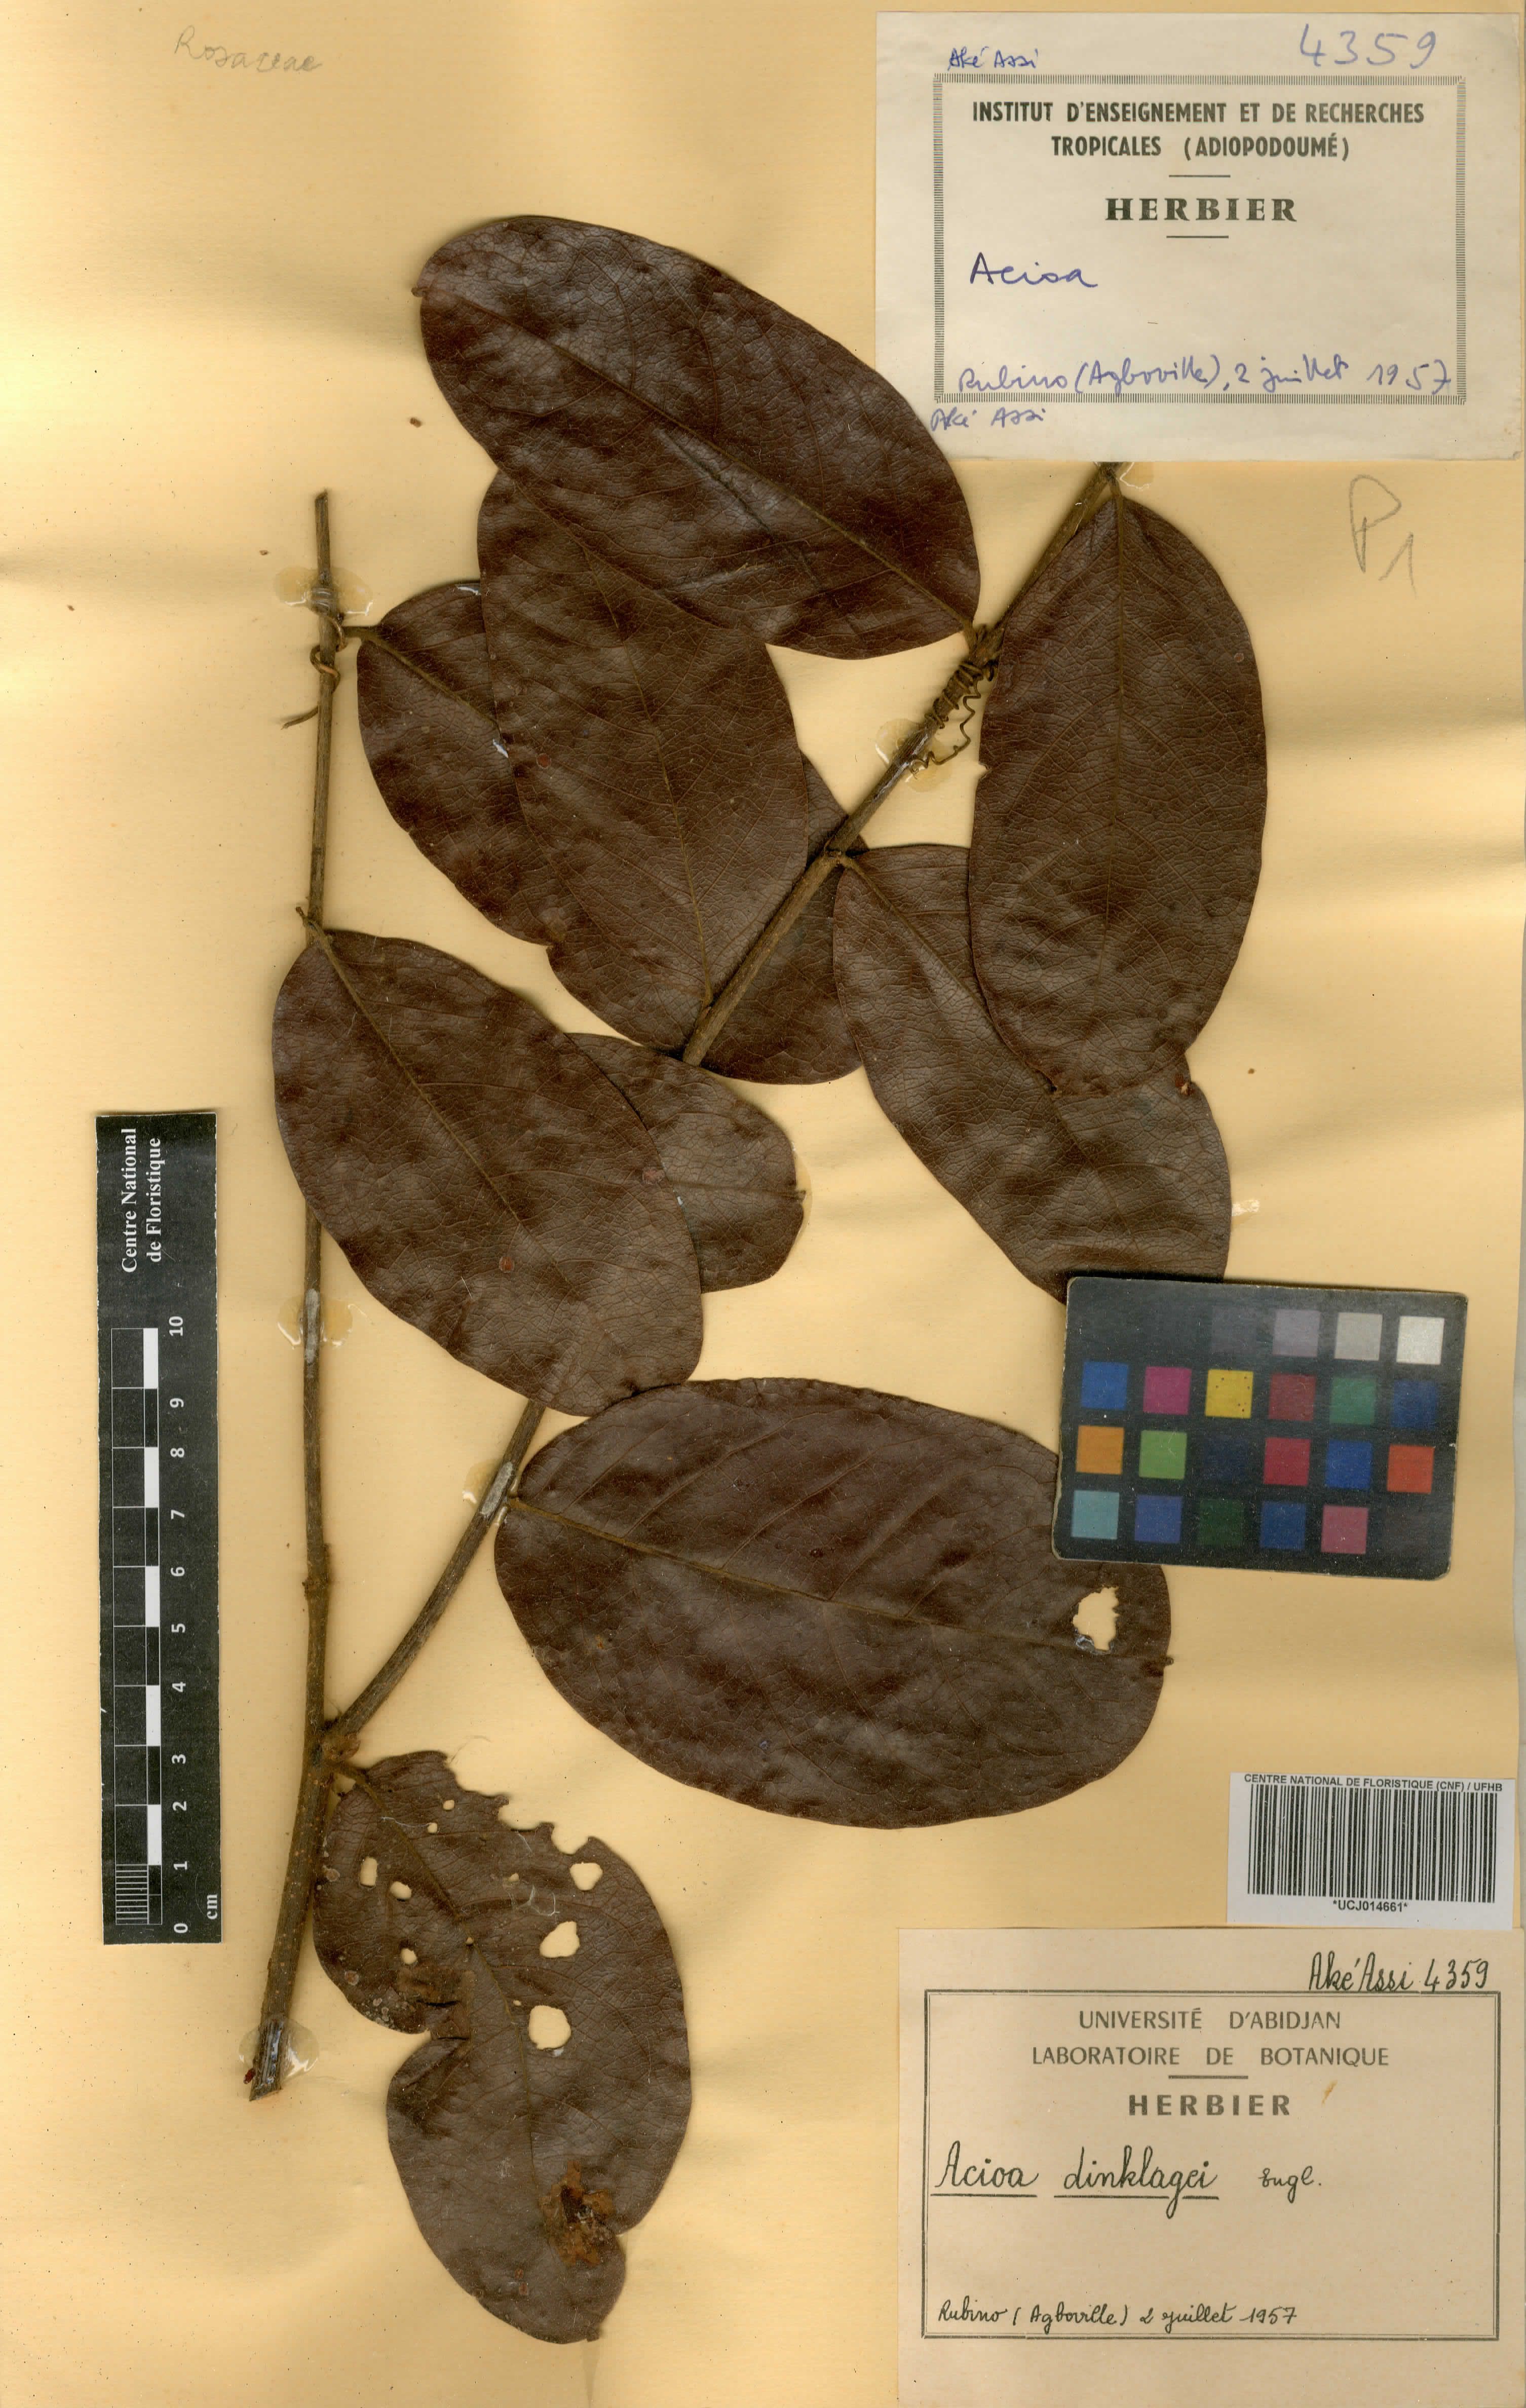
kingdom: Plantae
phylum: Tracheophyta
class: Magnoliopsida
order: Malpighiales
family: Chrysobalanaceae
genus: Dactyladenia
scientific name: Dactyladenia dinklagei
